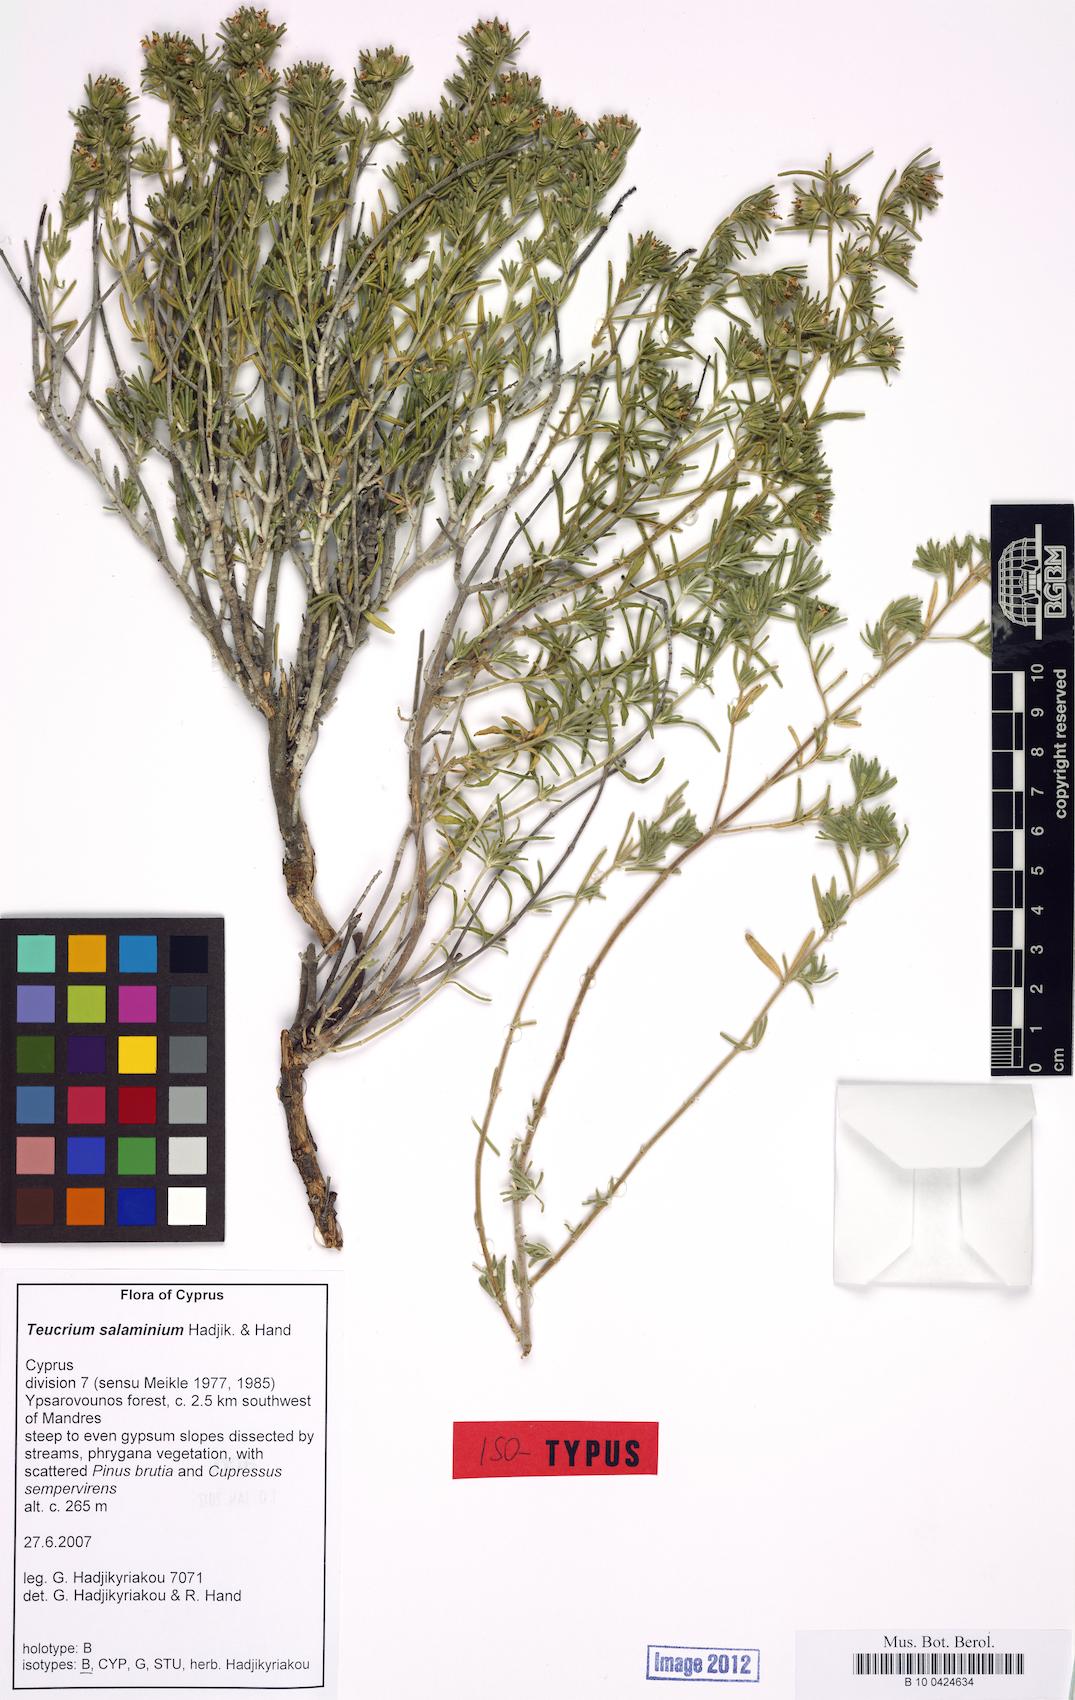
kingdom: Plantae
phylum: Tracheophyta
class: Magnoliopsida
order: Lamiales
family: Lamiaceae
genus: Teucrium
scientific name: Teucrium salaminium
